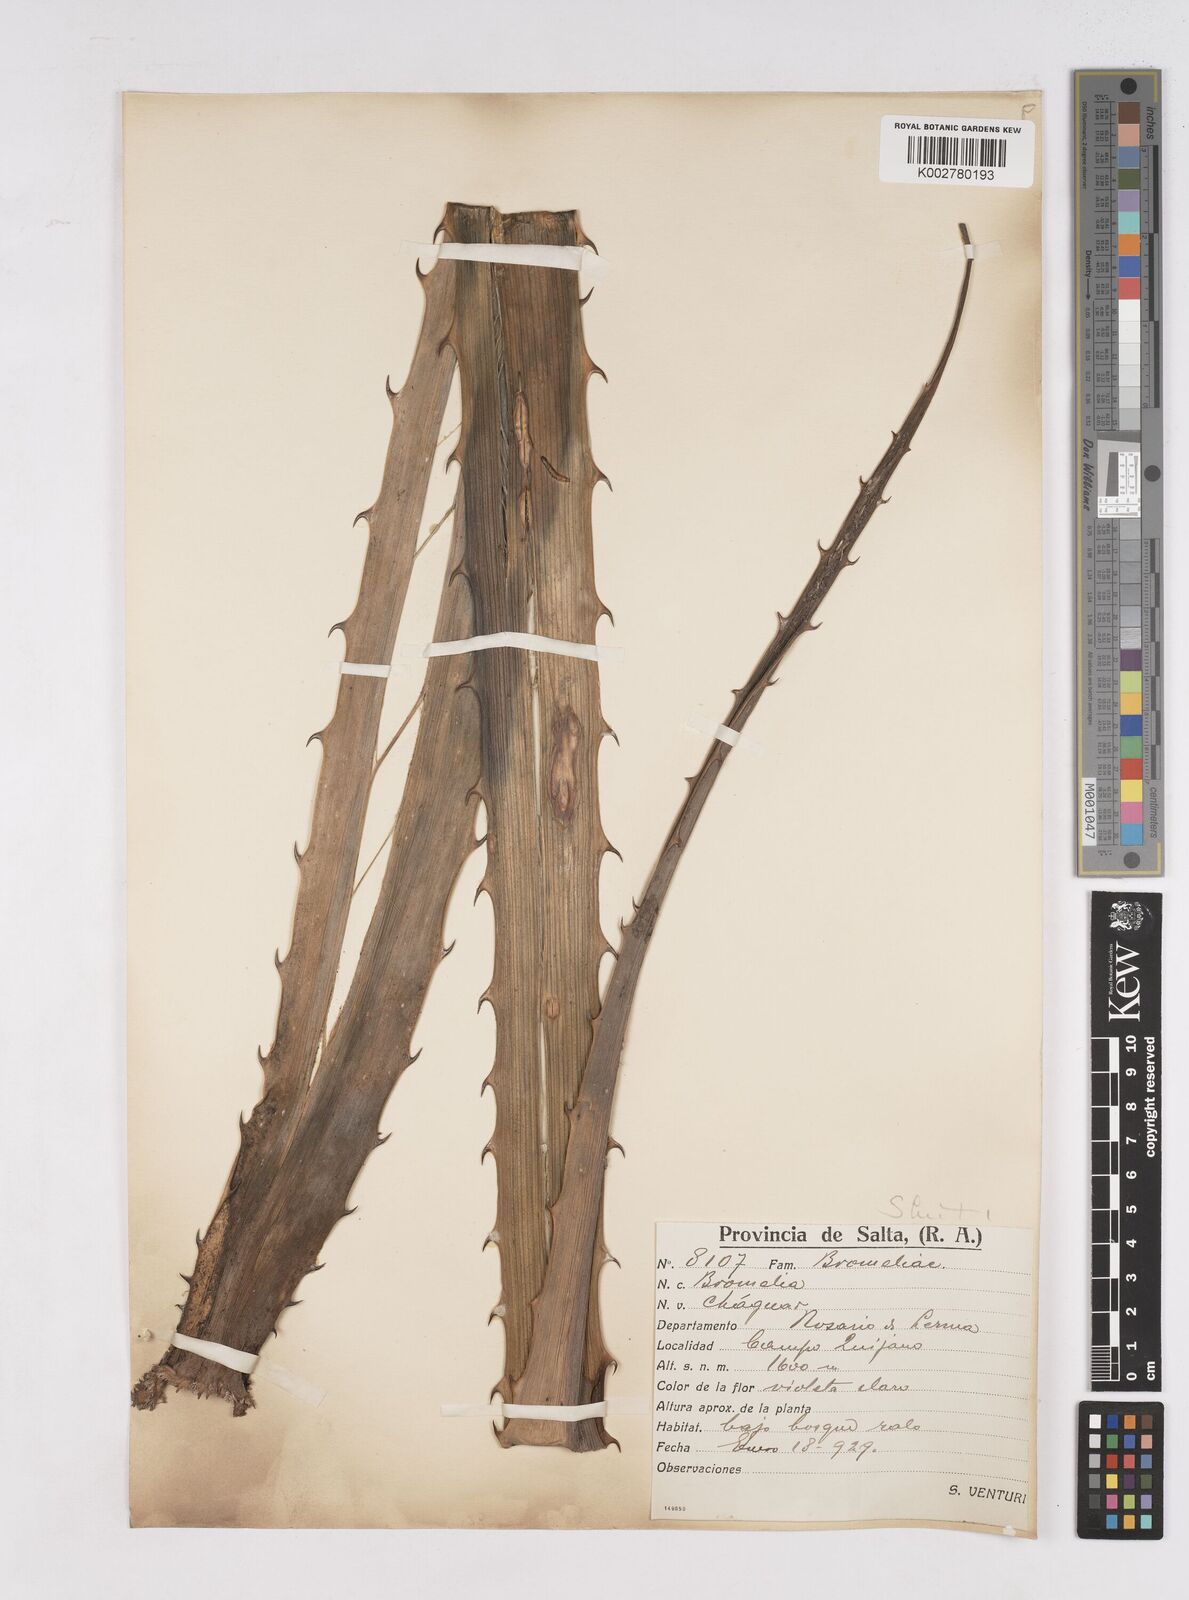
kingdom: Plantae
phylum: Tracheophyta
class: Liliopsida
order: Poales
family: Bromeliaceae
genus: Bromelia
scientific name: Bromelia
